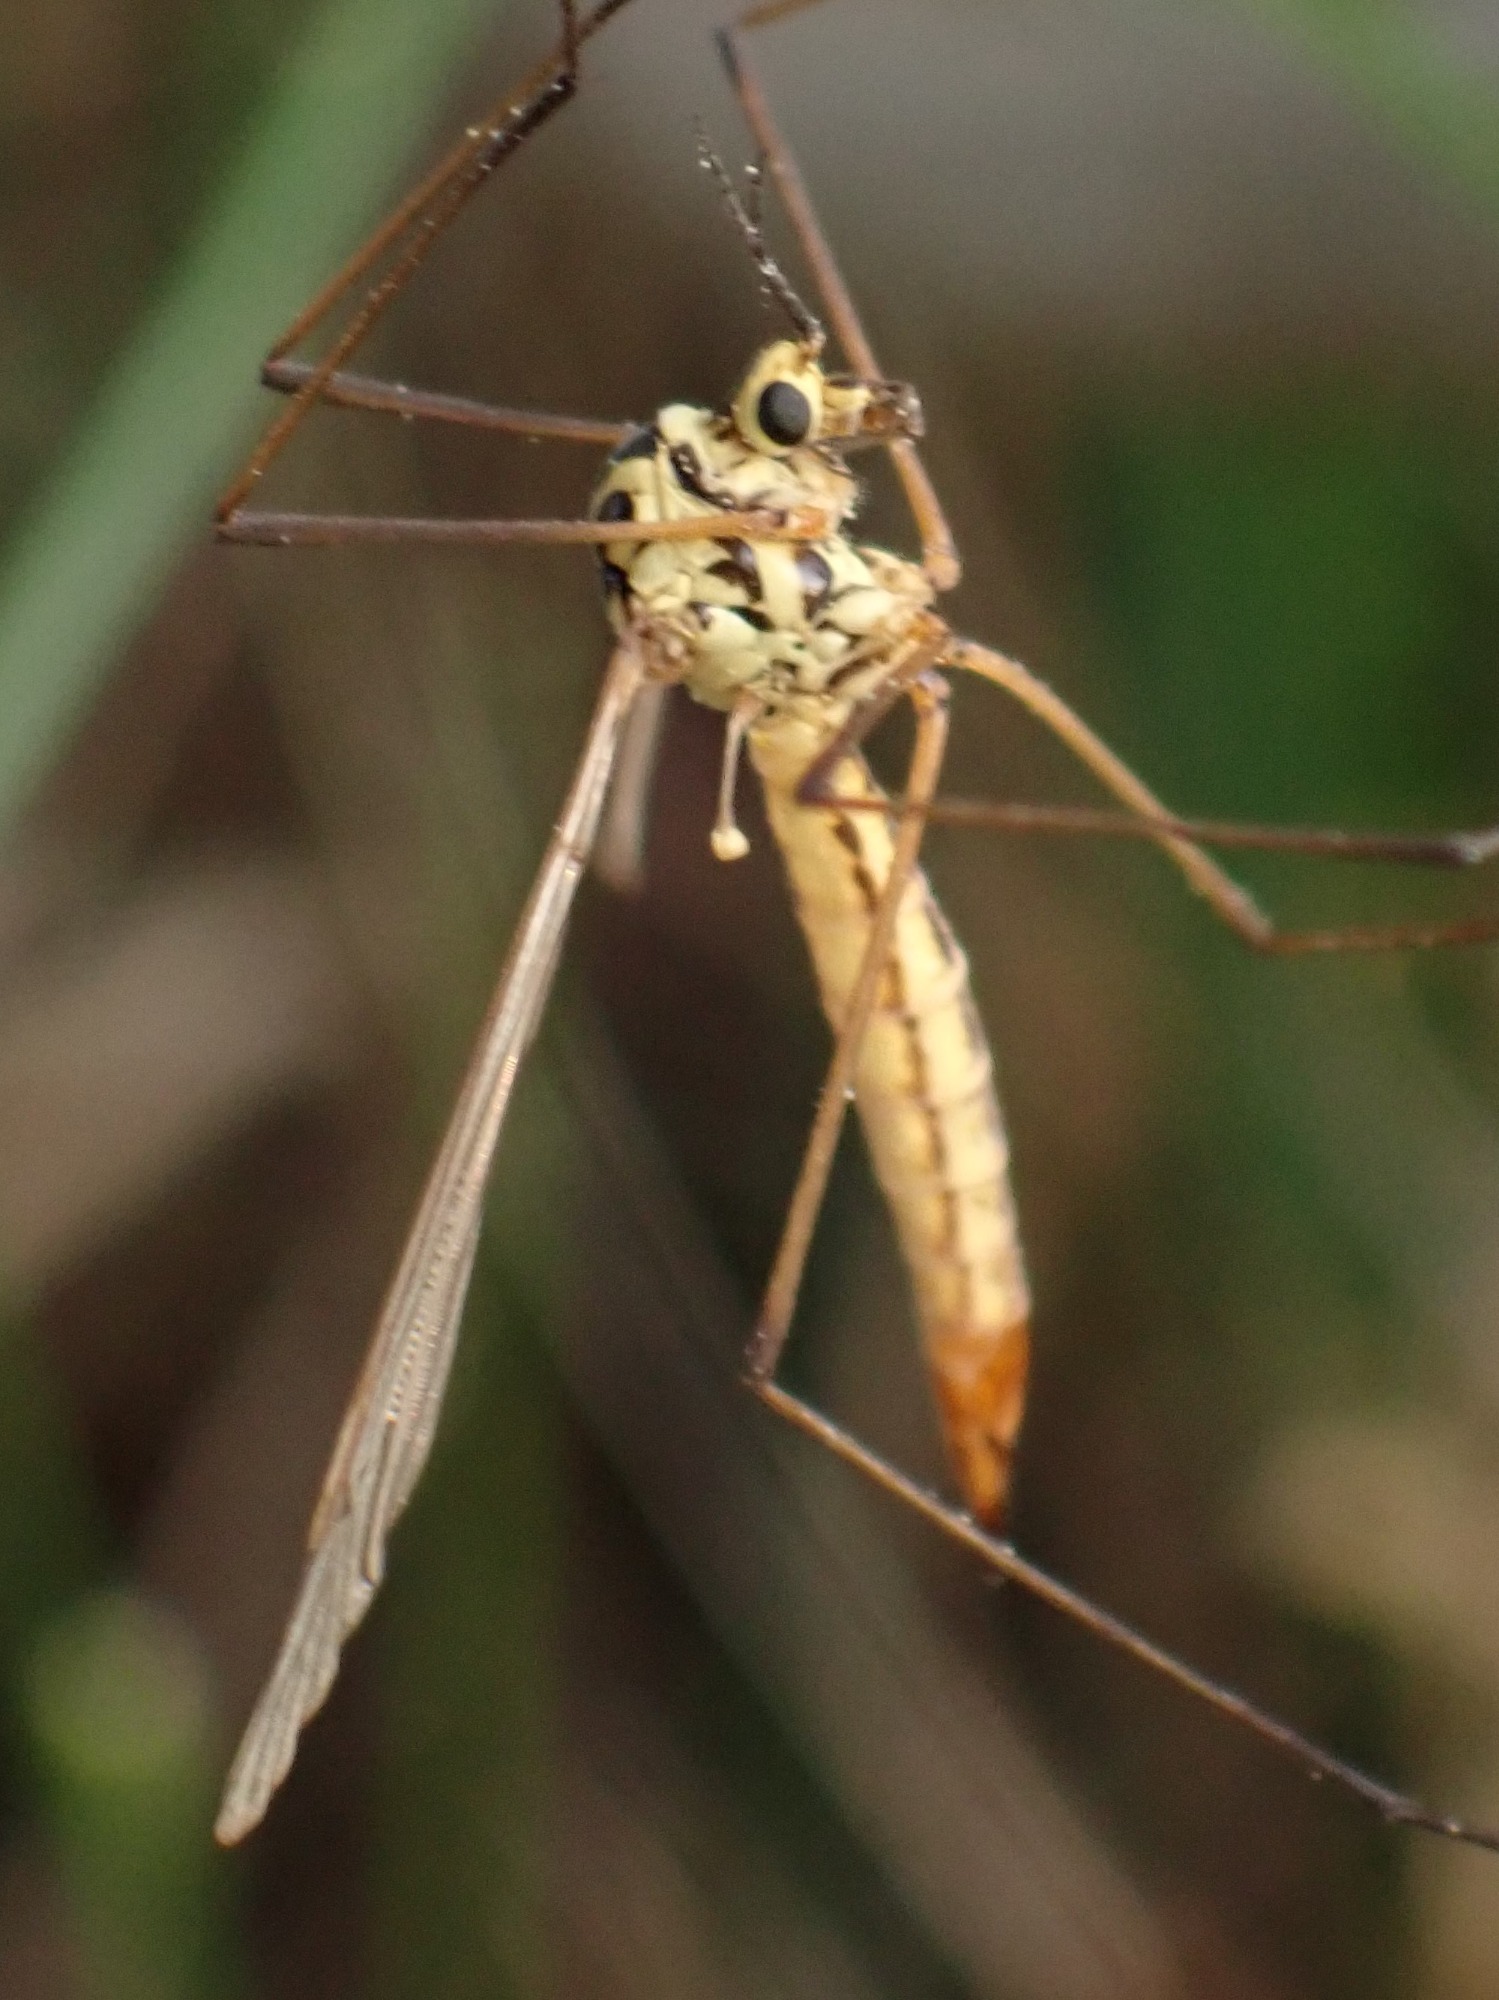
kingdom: Animalia
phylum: Arthropoda
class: Insecta
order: Diptera
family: Tipulidae
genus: Nephrotoma
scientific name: Nephrotoma submaculosa
